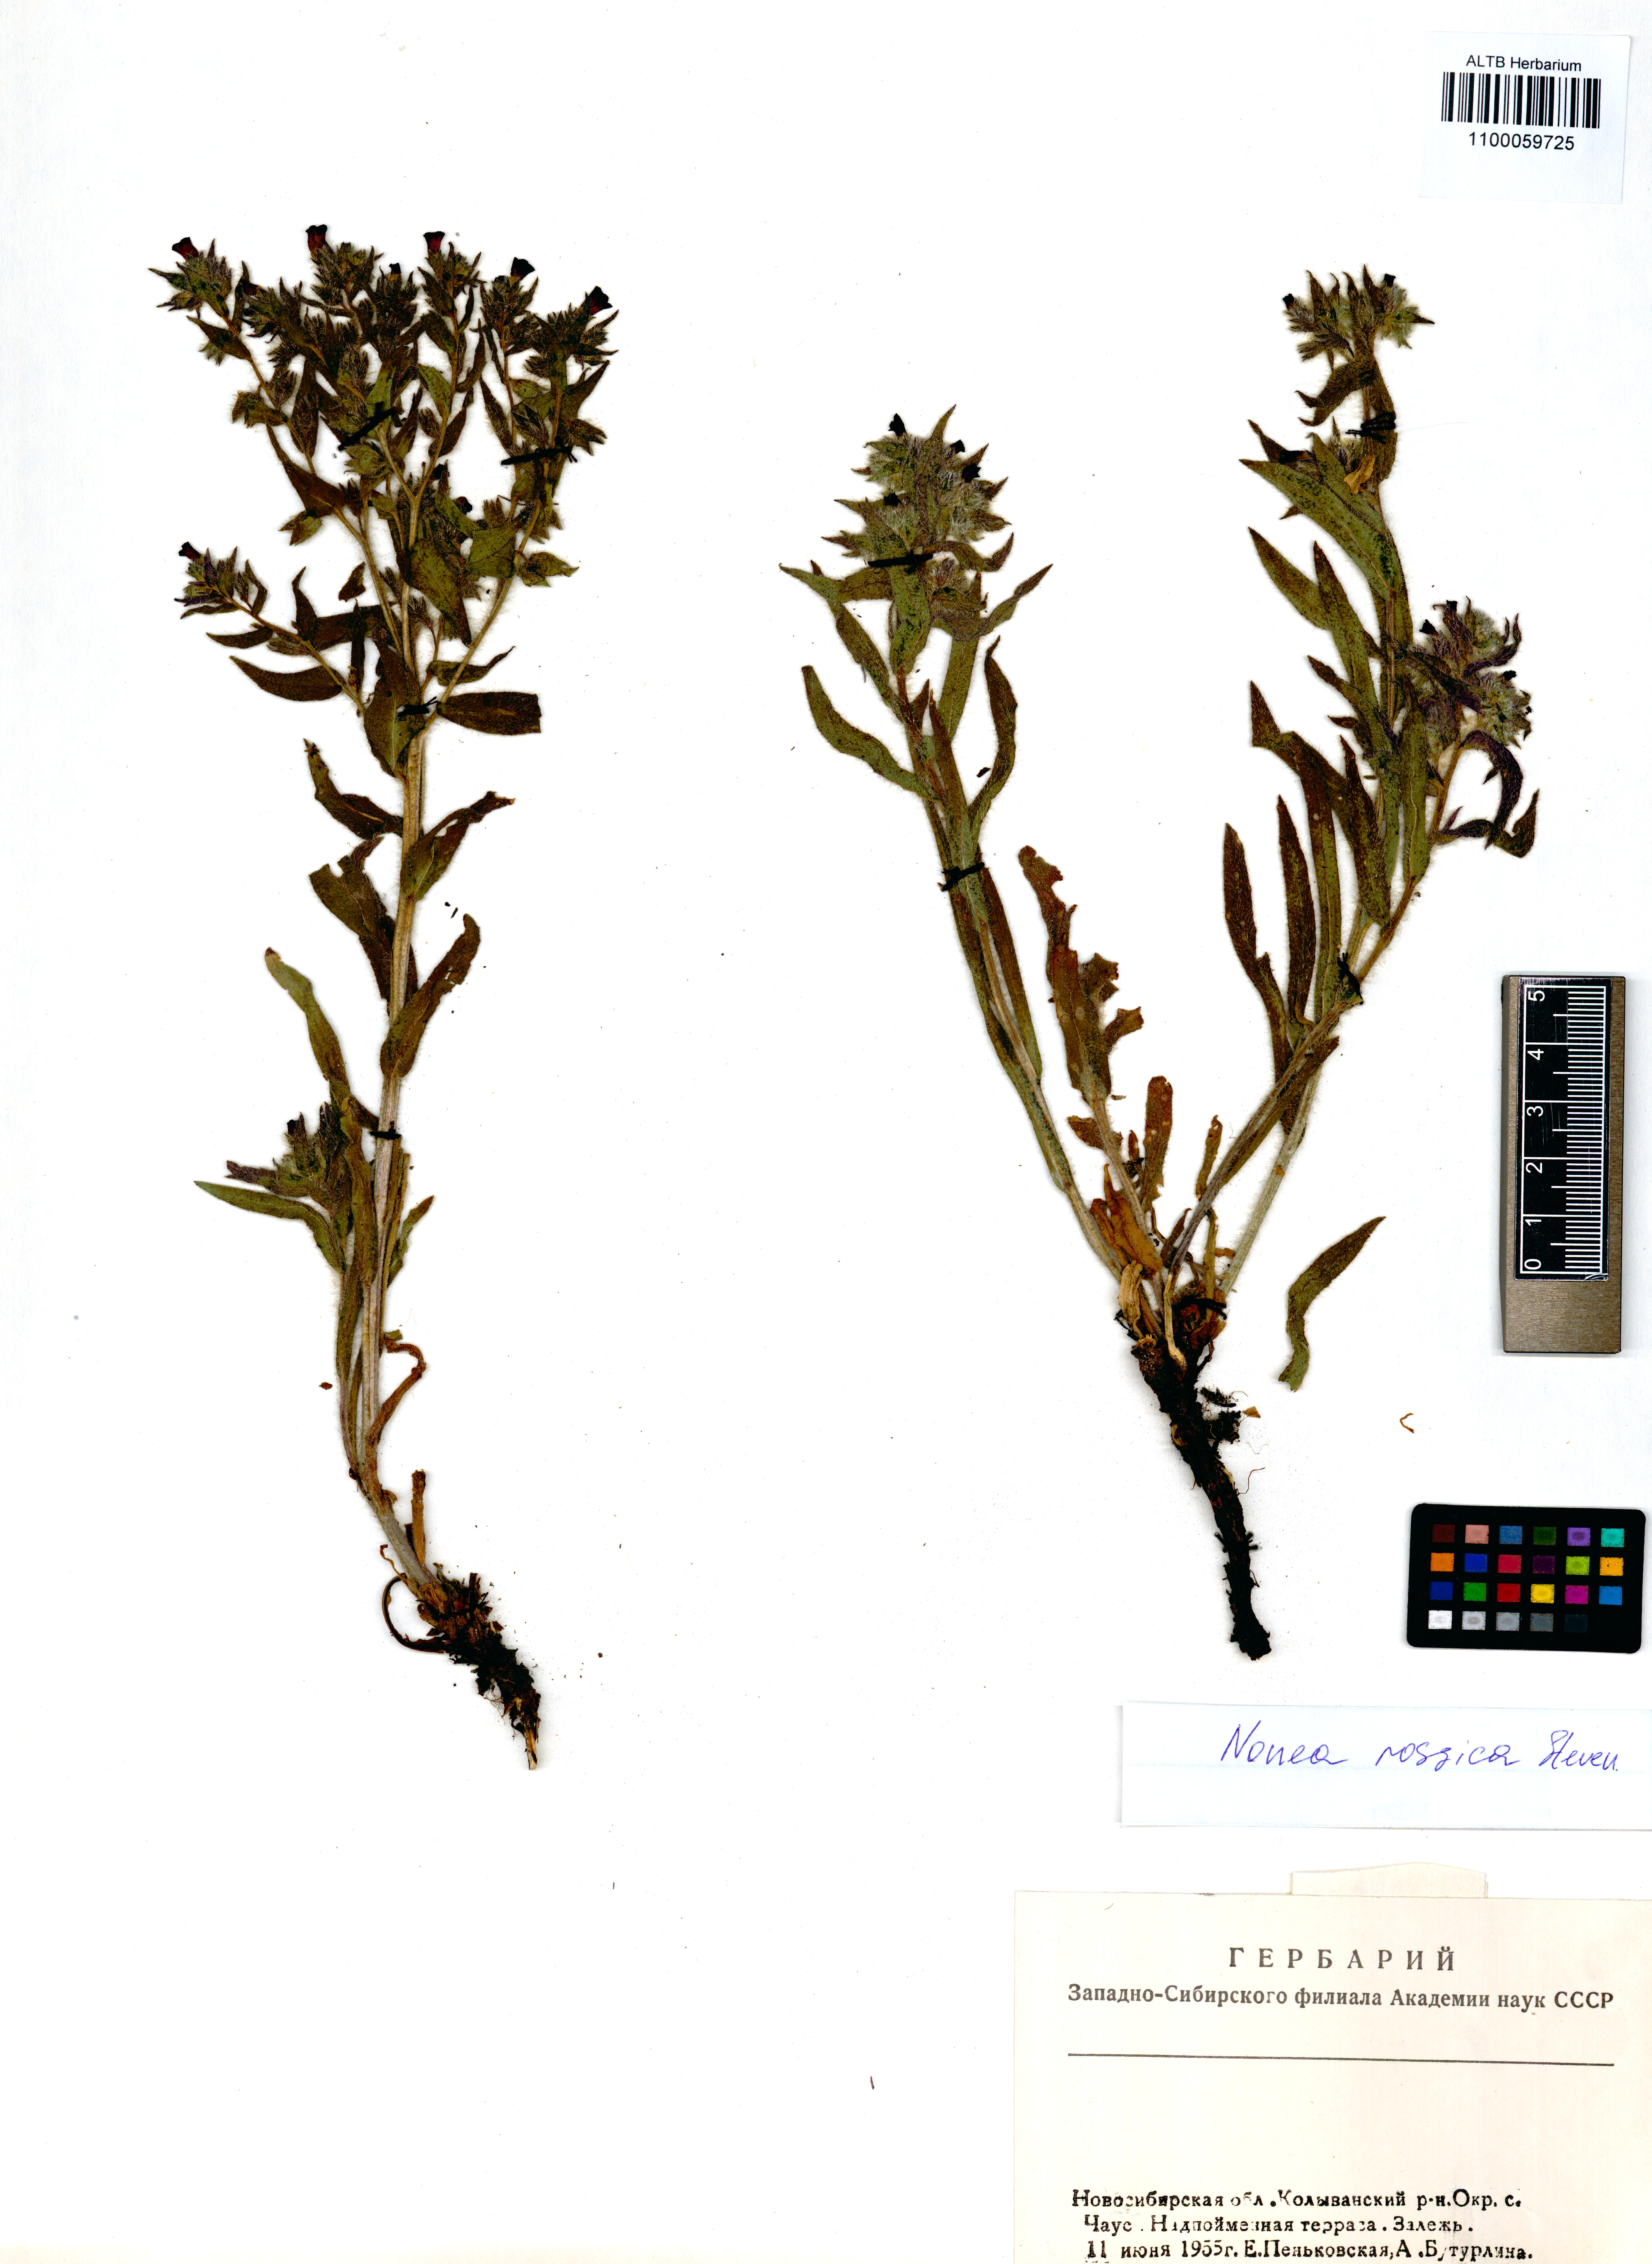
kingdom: Plantae
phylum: Tracheophyta
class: Magnoliopsida
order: Boraginales
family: Boraginaceae
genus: Nonea
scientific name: Nonea pulla
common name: Brown nonea
